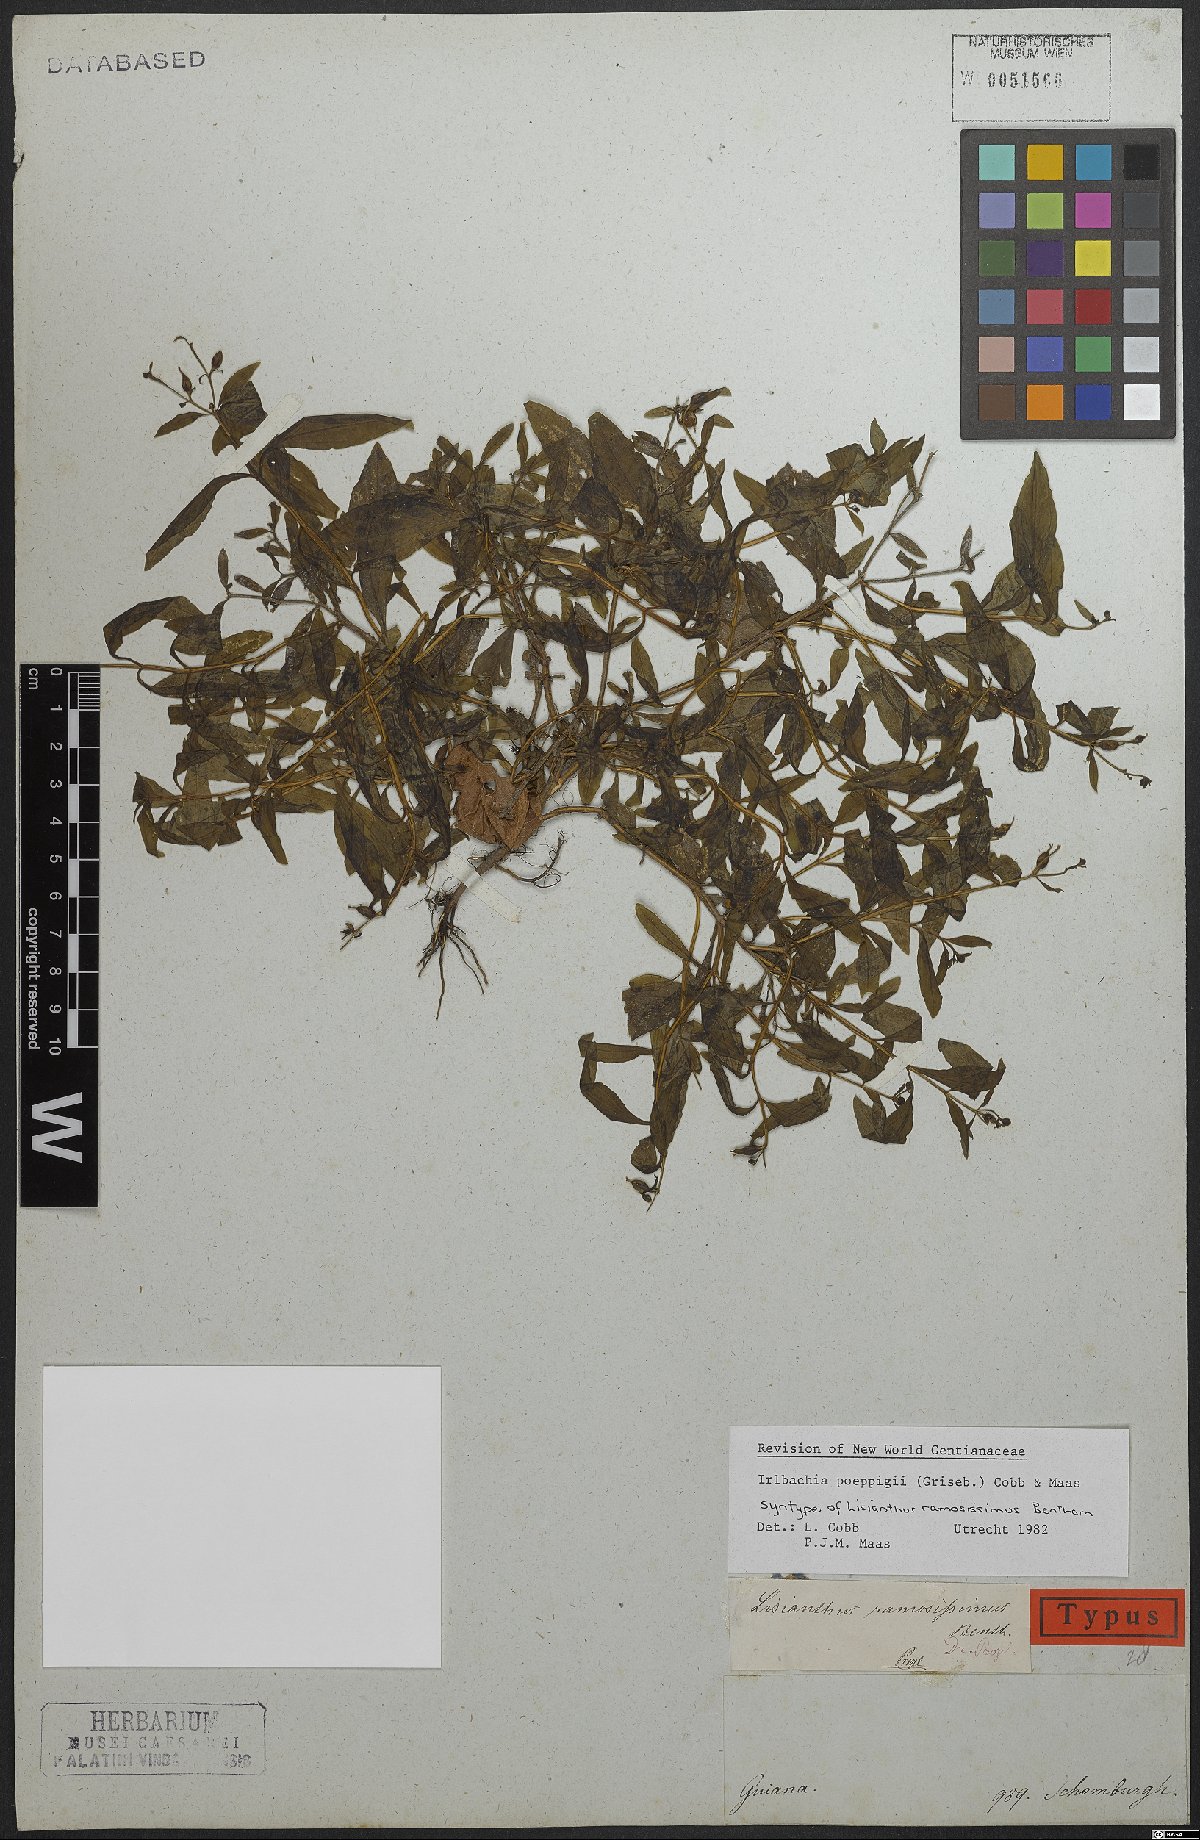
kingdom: Plantae
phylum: Tracheophyta
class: Magnoliopsida
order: Gentianales
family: Gentianaceae
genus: Irlbachia
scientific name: Irlbachia poeppigii
